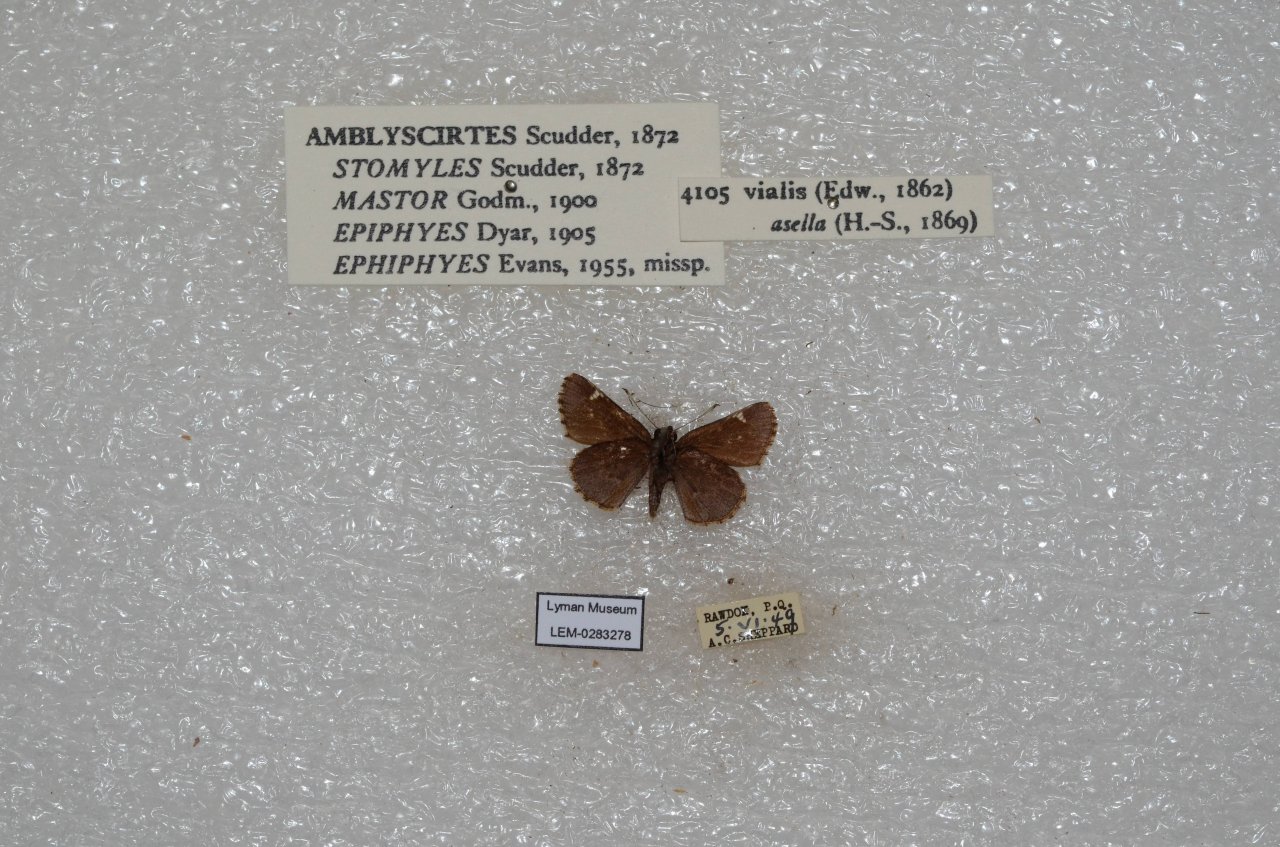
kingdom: Animalia
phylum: Arthropoda
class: Insecta
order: Lepidoptera
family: Hesperiidae
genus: Mastor
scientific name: Mastor vialis
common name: Common Roadside-Skipper
